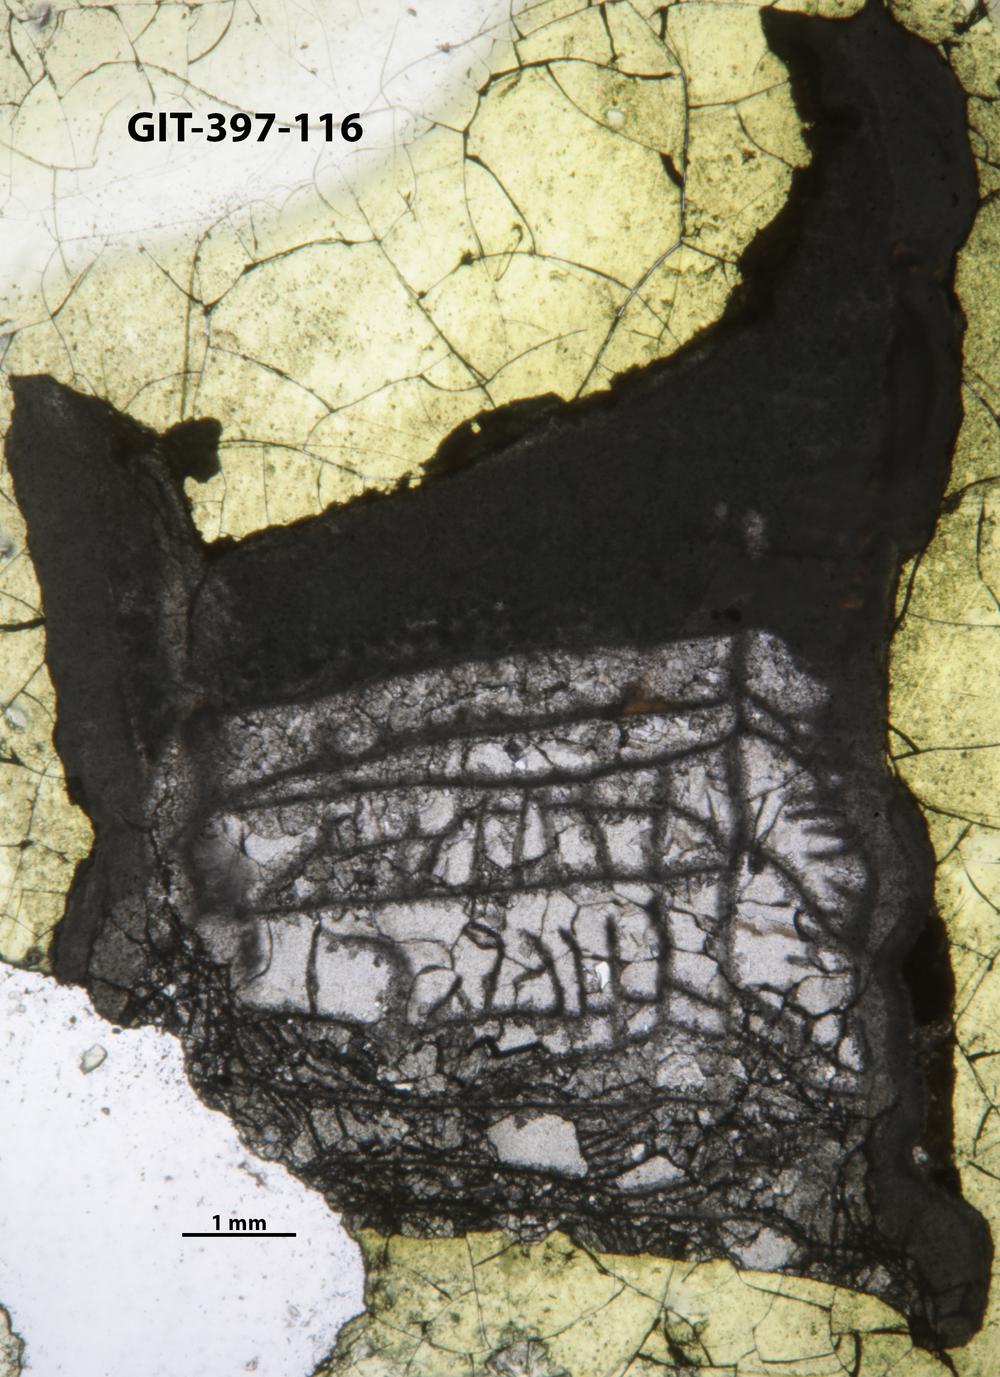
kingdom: Animalia
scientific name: Animalia
